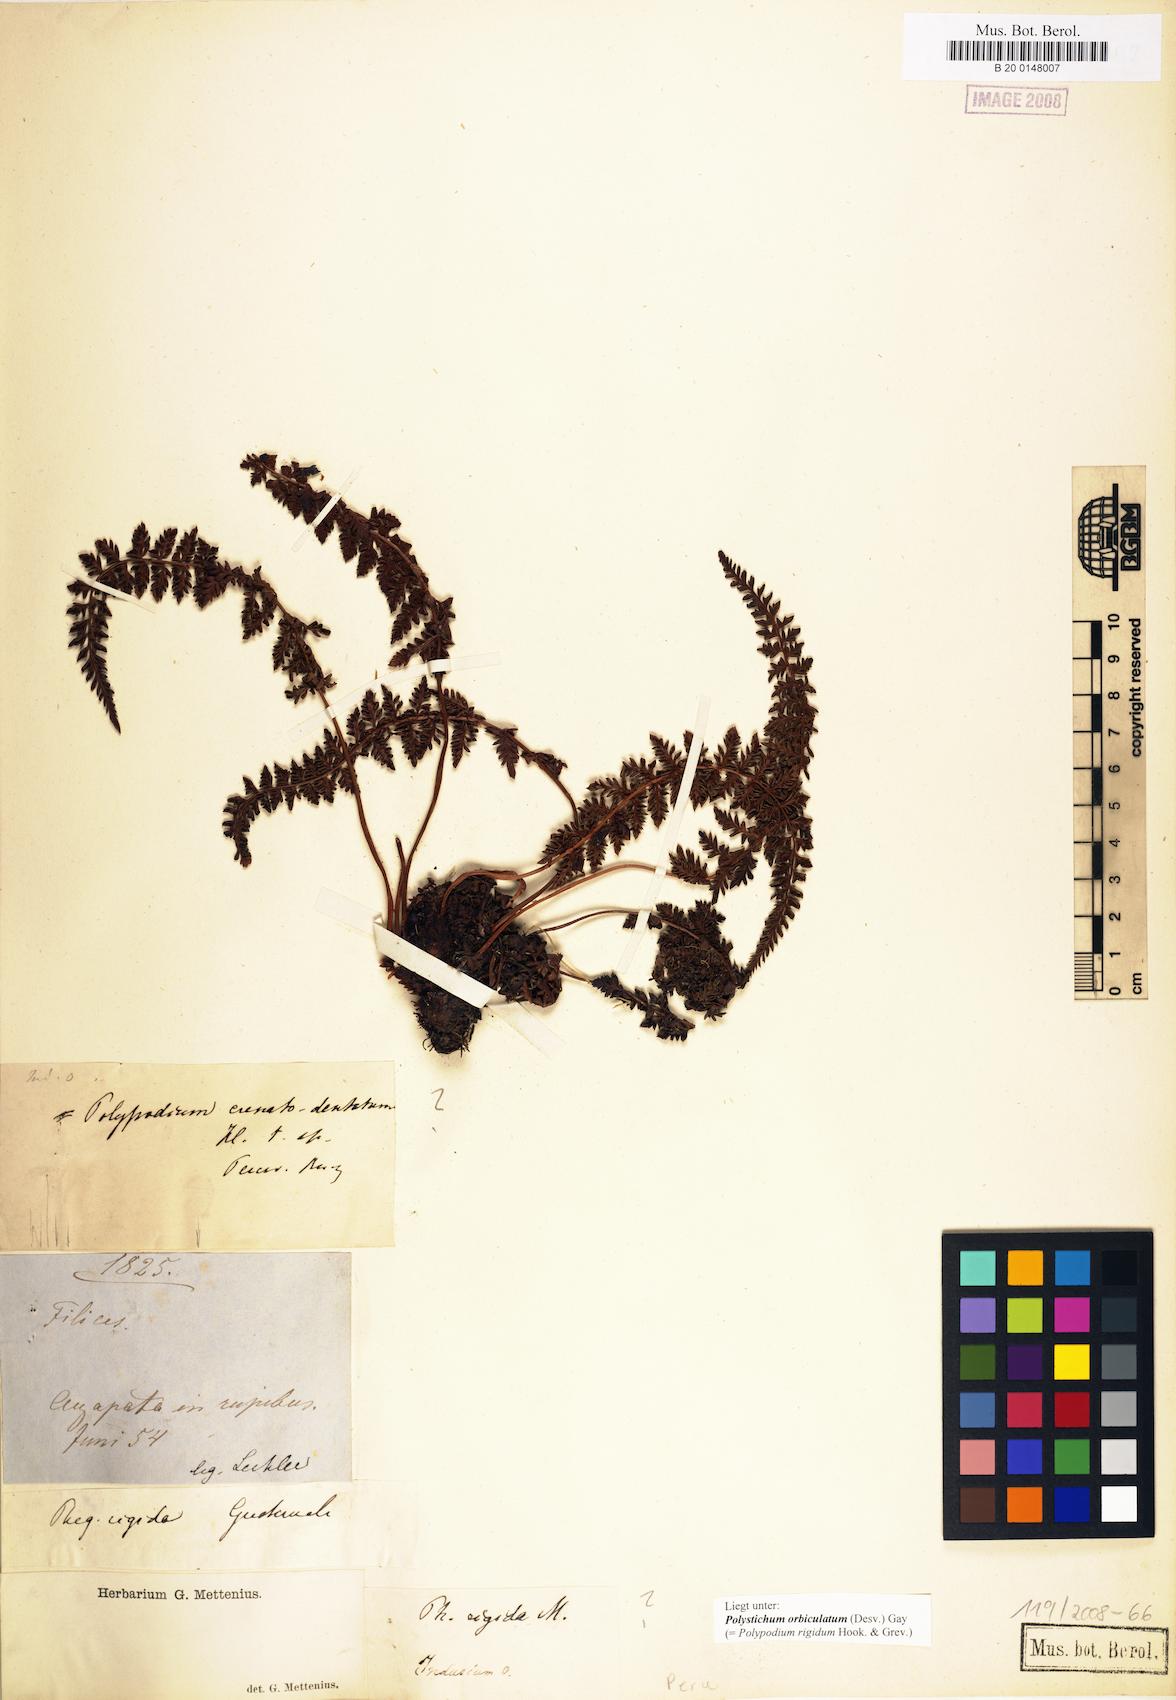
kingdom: Plantae
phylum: Tracheophyta
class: Polypodiopsida
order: Polypodiales
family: Dryopteridaceae
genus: Polystichum
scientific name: Polystichum orbiculatum
